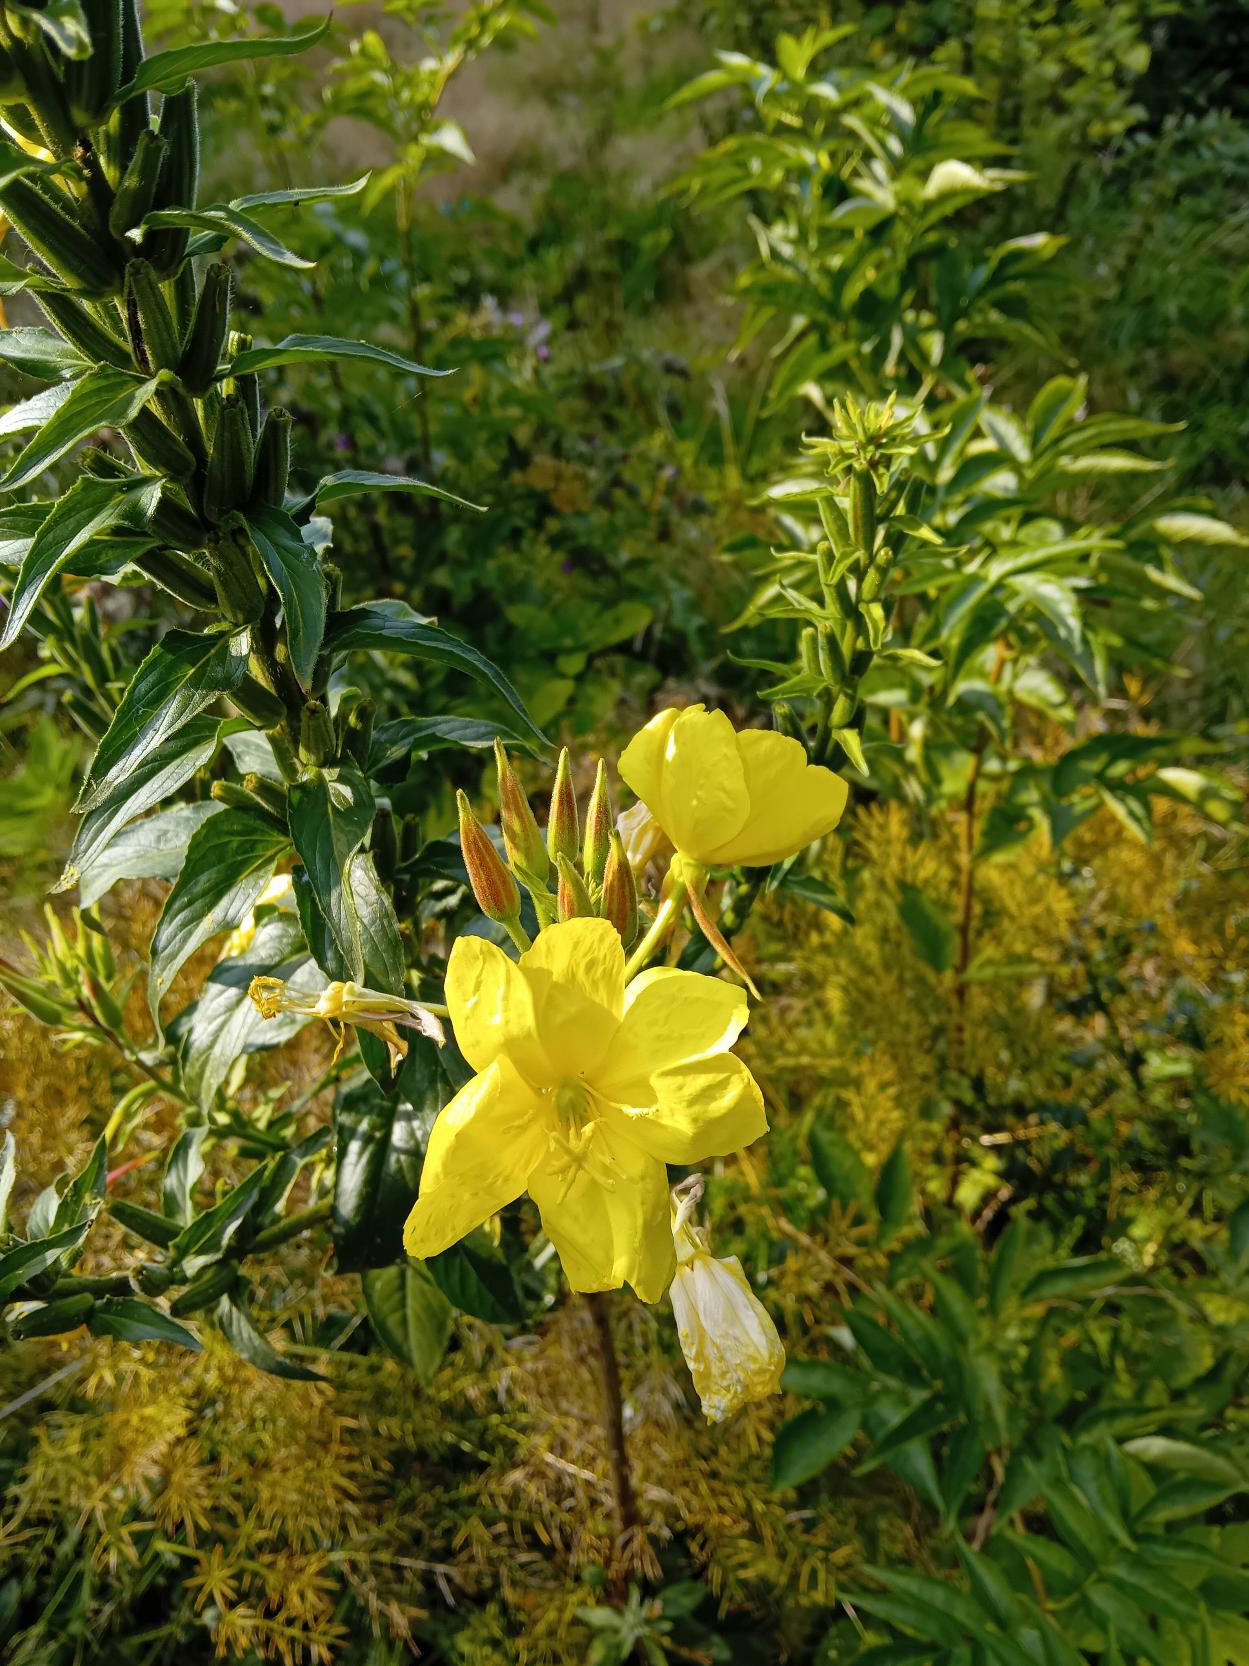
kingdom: Plantae
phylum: Tracheophyta
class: Magnoliopsida
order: Myrtales
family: Onagraceae
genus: Oenothera
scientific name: Oenothera glazioviana
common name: Kæmpe-natlys
